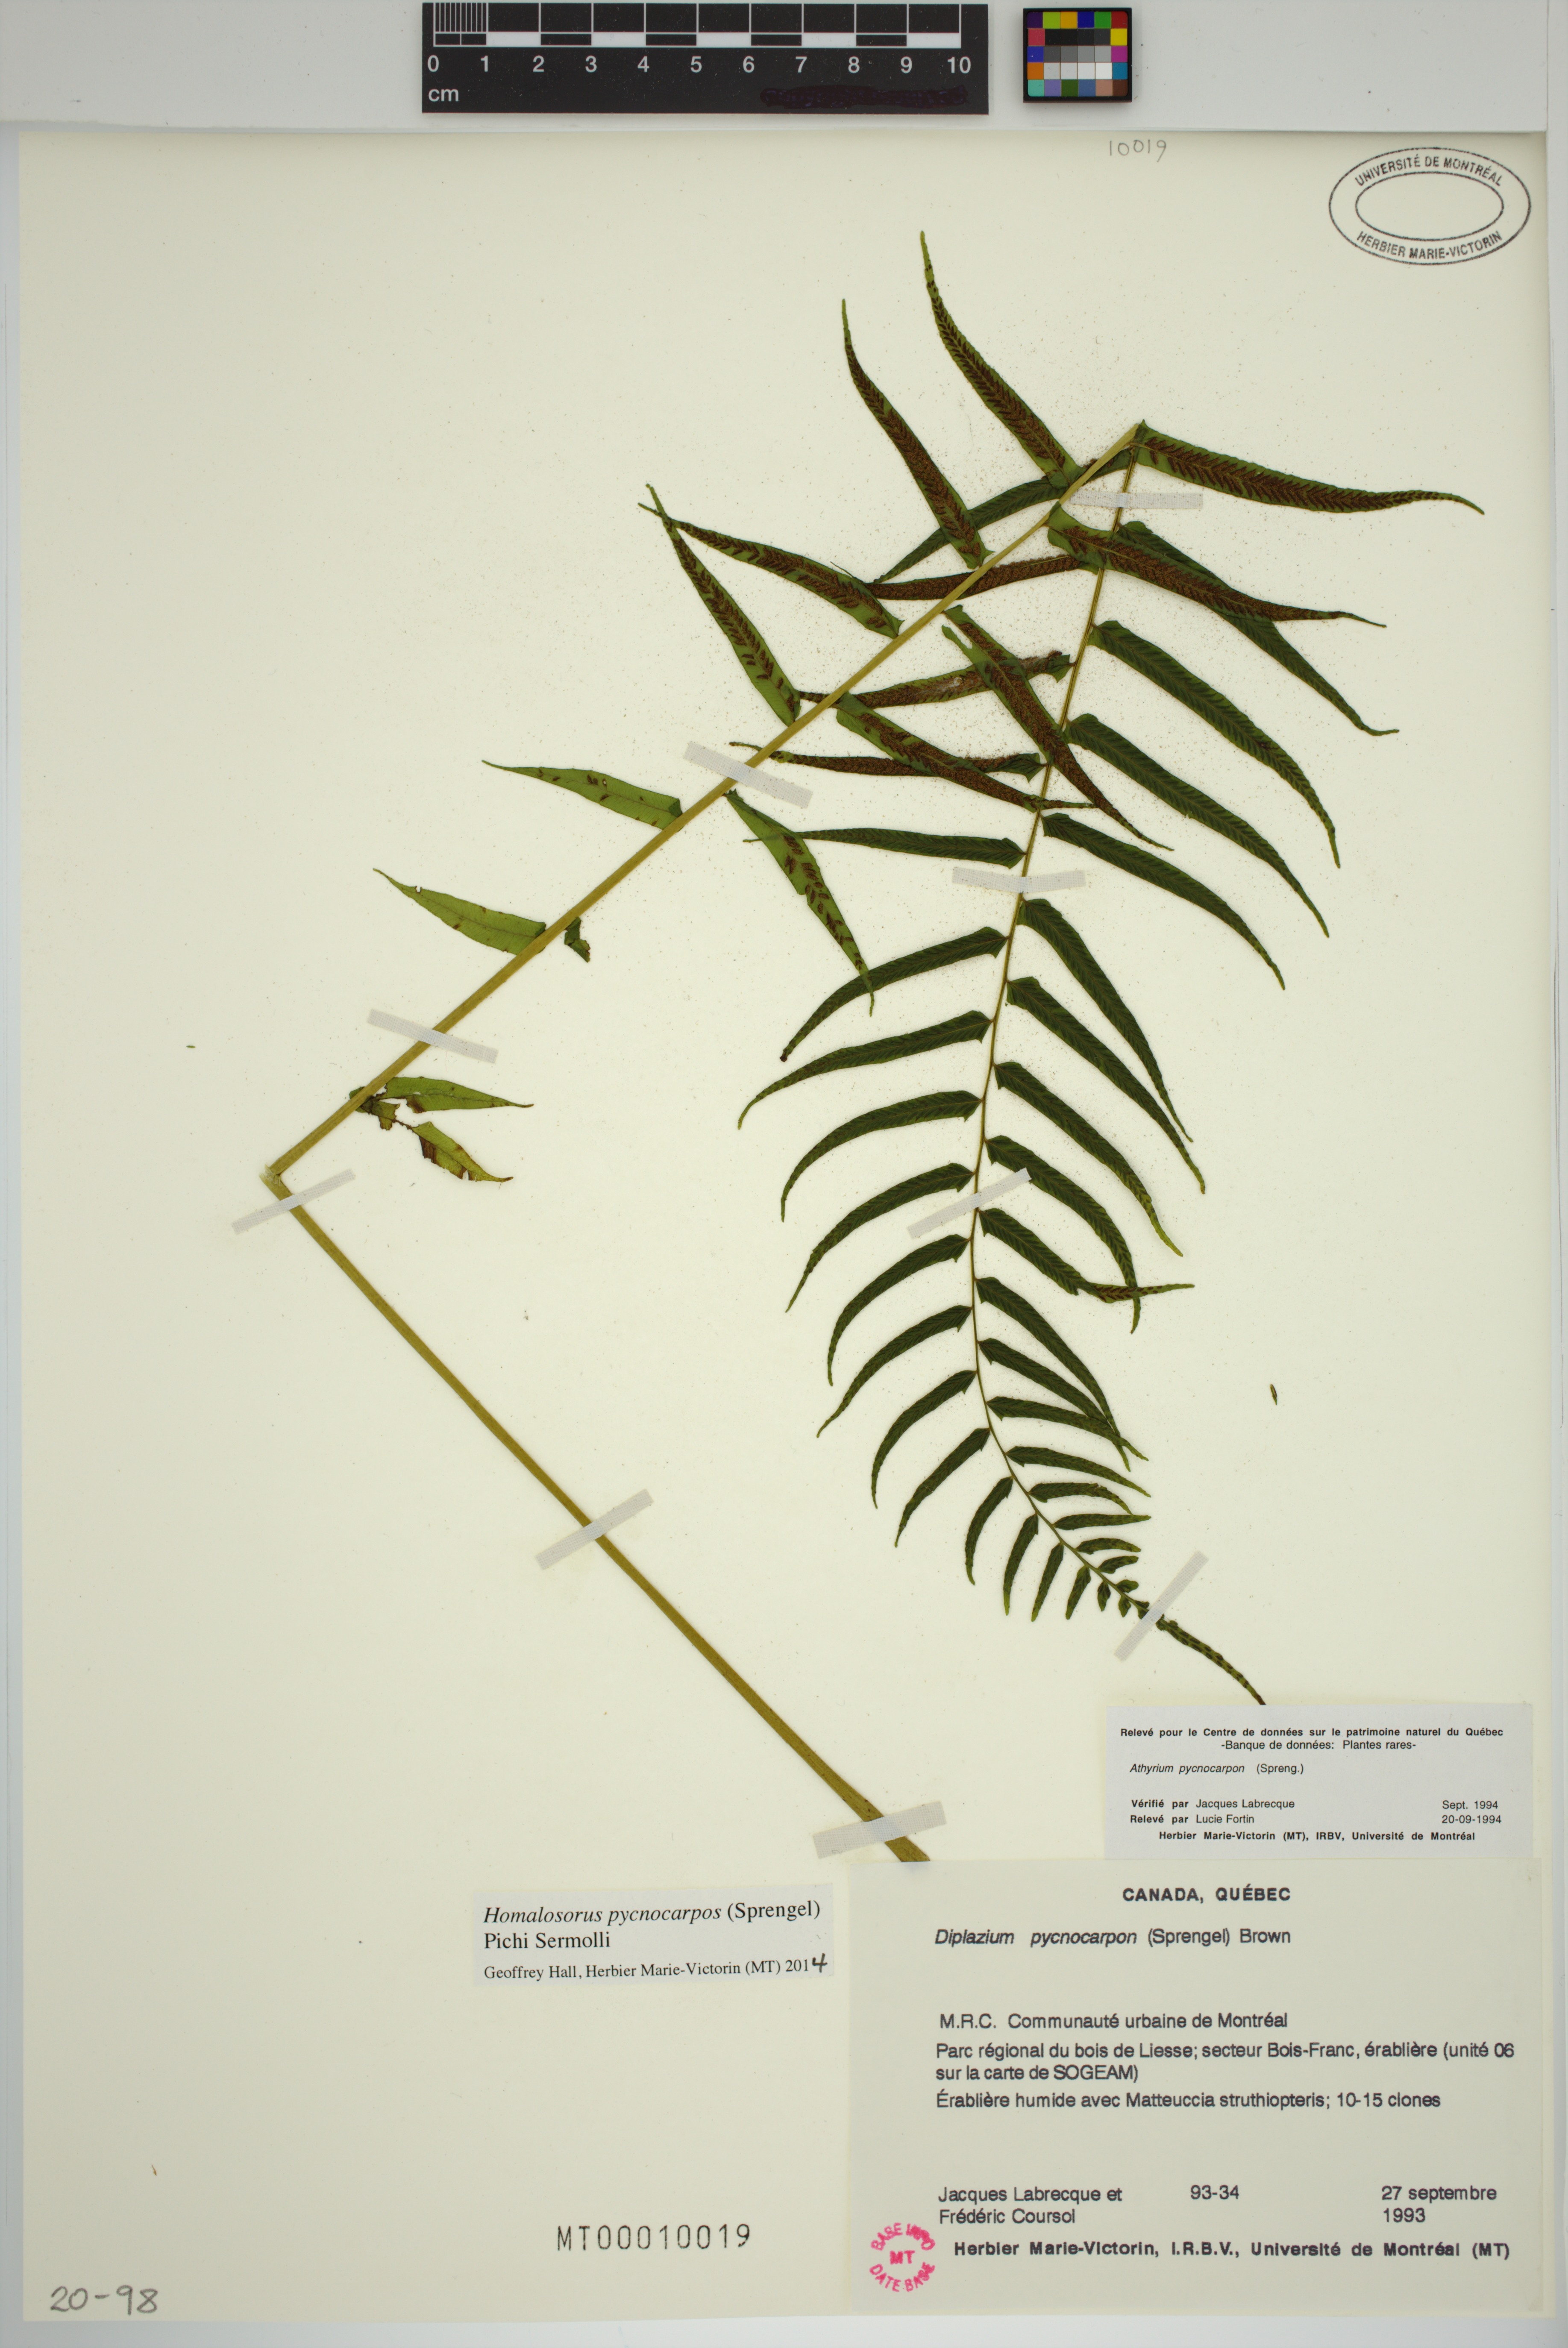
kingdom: Plantae
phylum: Tracheophyta
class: Polypodiopsida
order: Polypodiales
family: Diplaziopsidaceae
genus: Homalosorus
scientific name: Homalosorus pycnocarpos
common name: Glade fern
